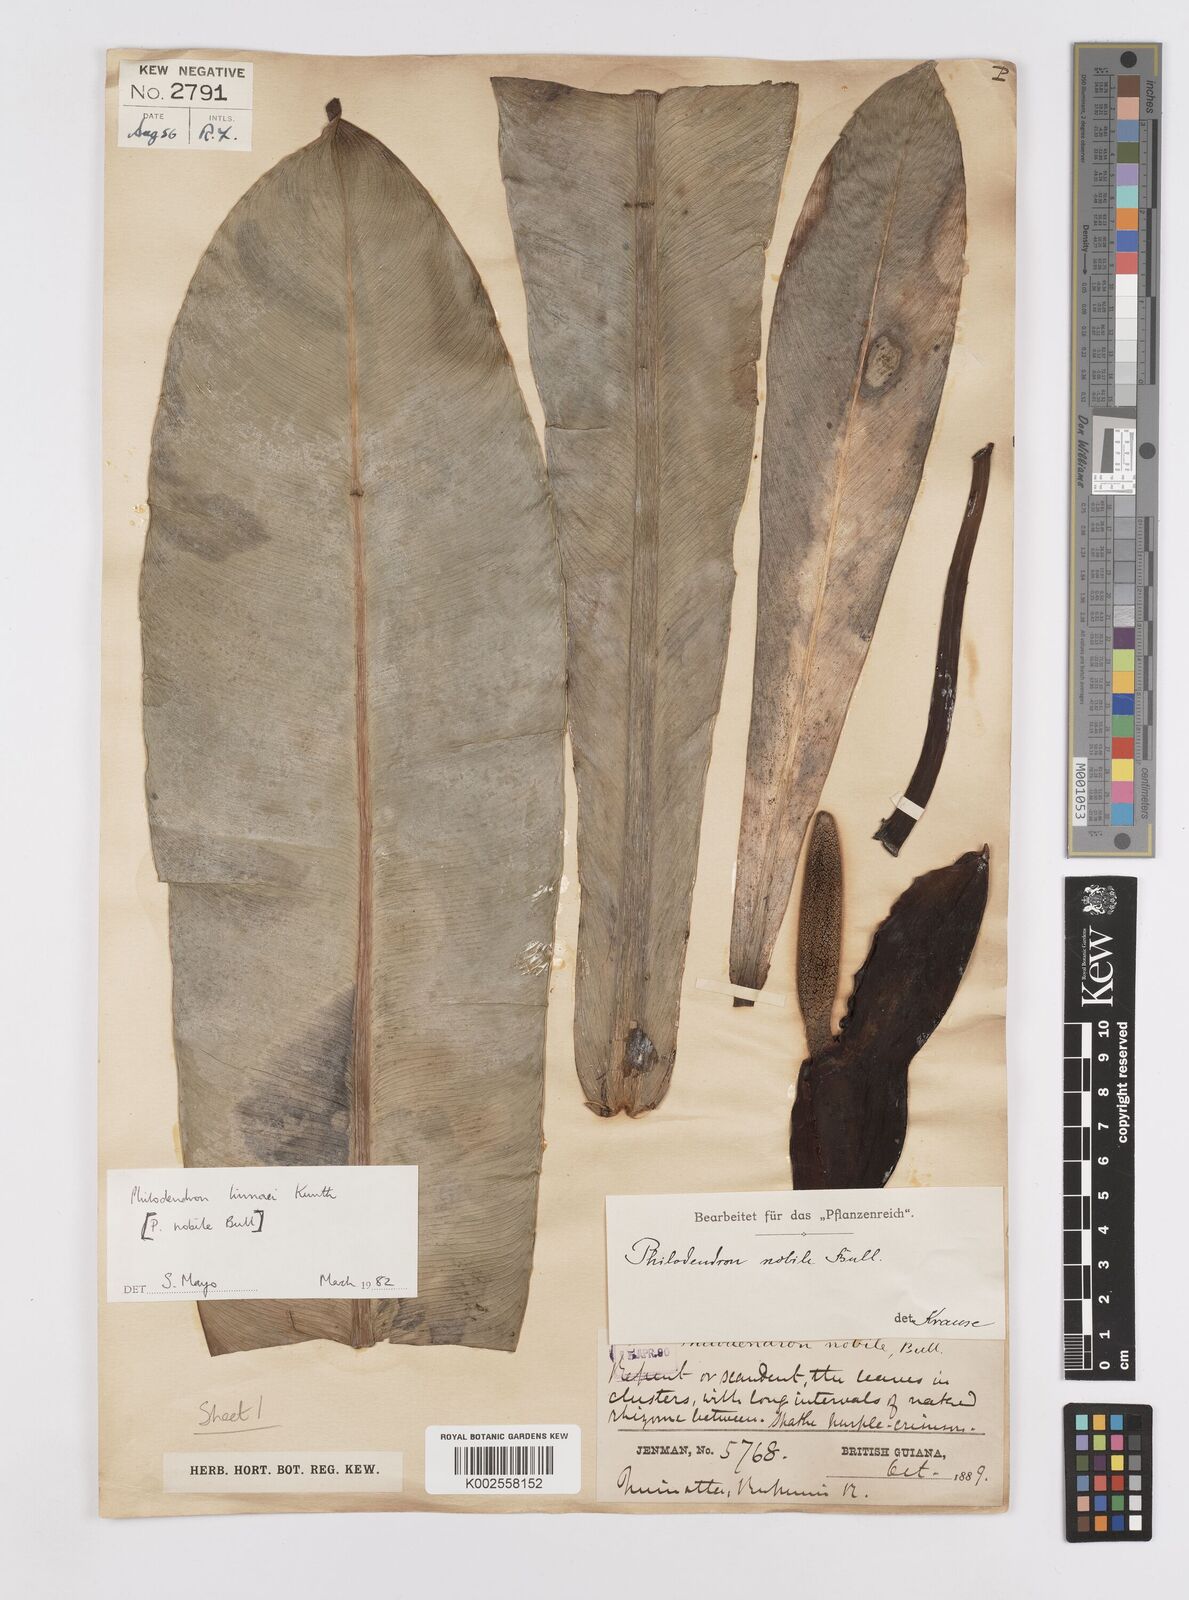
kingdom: Plantae
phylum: Tracheophyta
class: Liliopsida
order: Alismatales
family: Araceae
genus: Philodendron
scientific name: Philodendron linnaei
